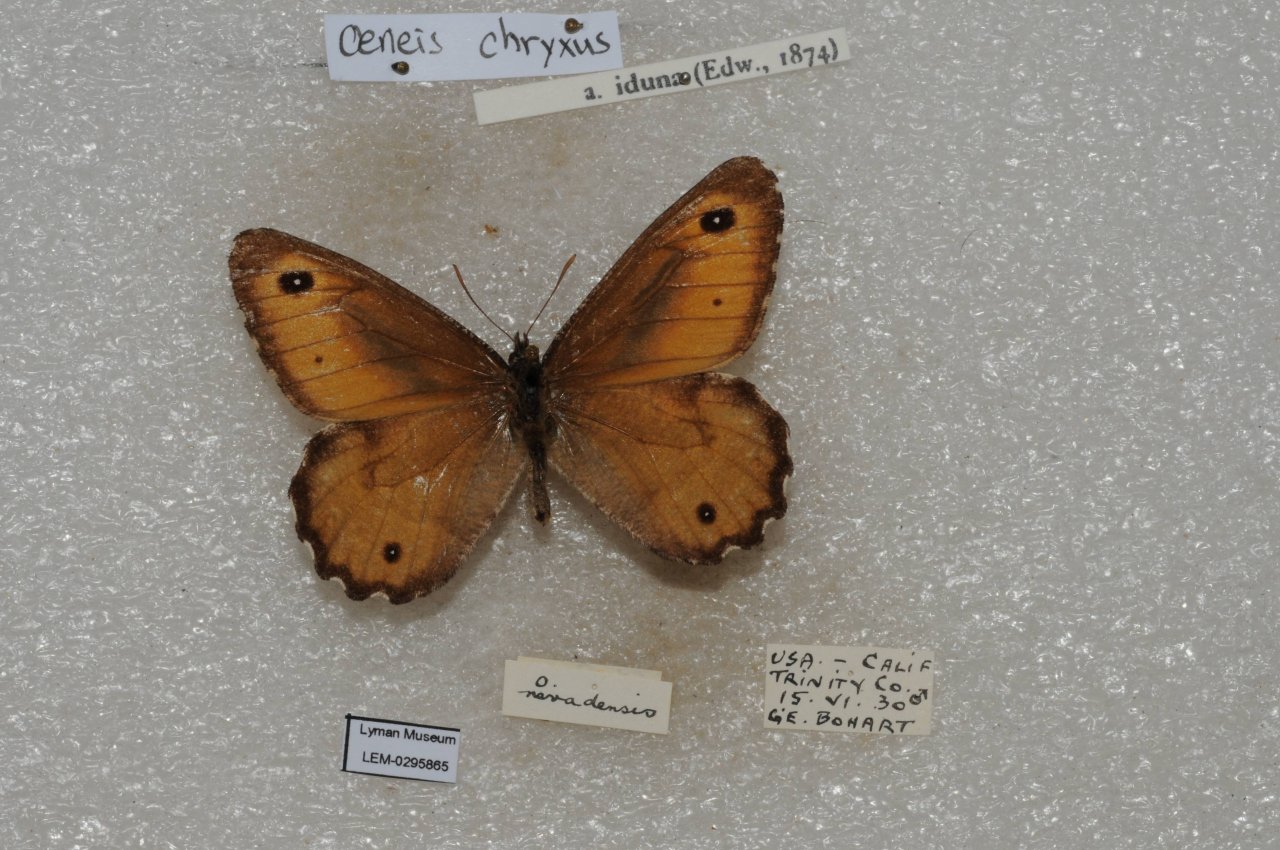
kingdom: Animalia
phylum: Arthropoda
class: Insecta
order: Lepidoptera
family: Nymphalidae
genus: Oeneis
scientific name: Oeneis chryxus
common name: Chryxus Arctic
